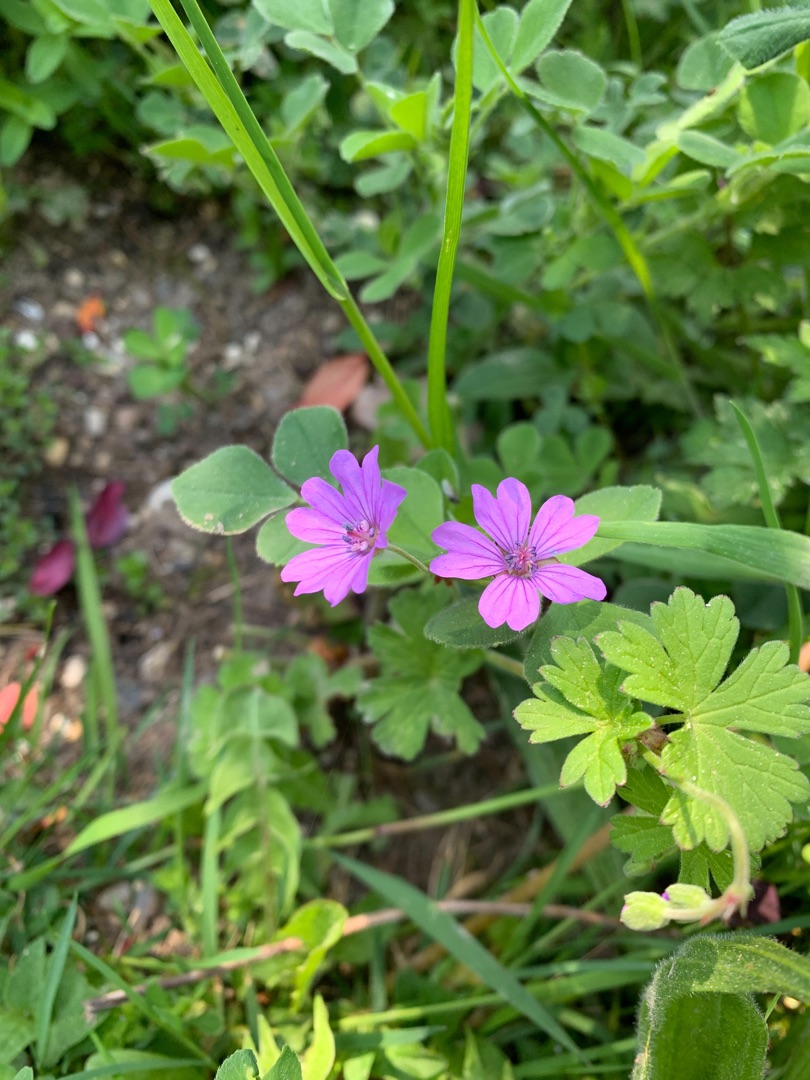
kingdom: Plantae
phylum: Tracheophyta
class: Magnoliopsida
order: Geraniales
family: Geraniaceae
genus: Geranium
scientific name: Geranium pyrenaicum
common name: Pyrenæisk storkenæb
